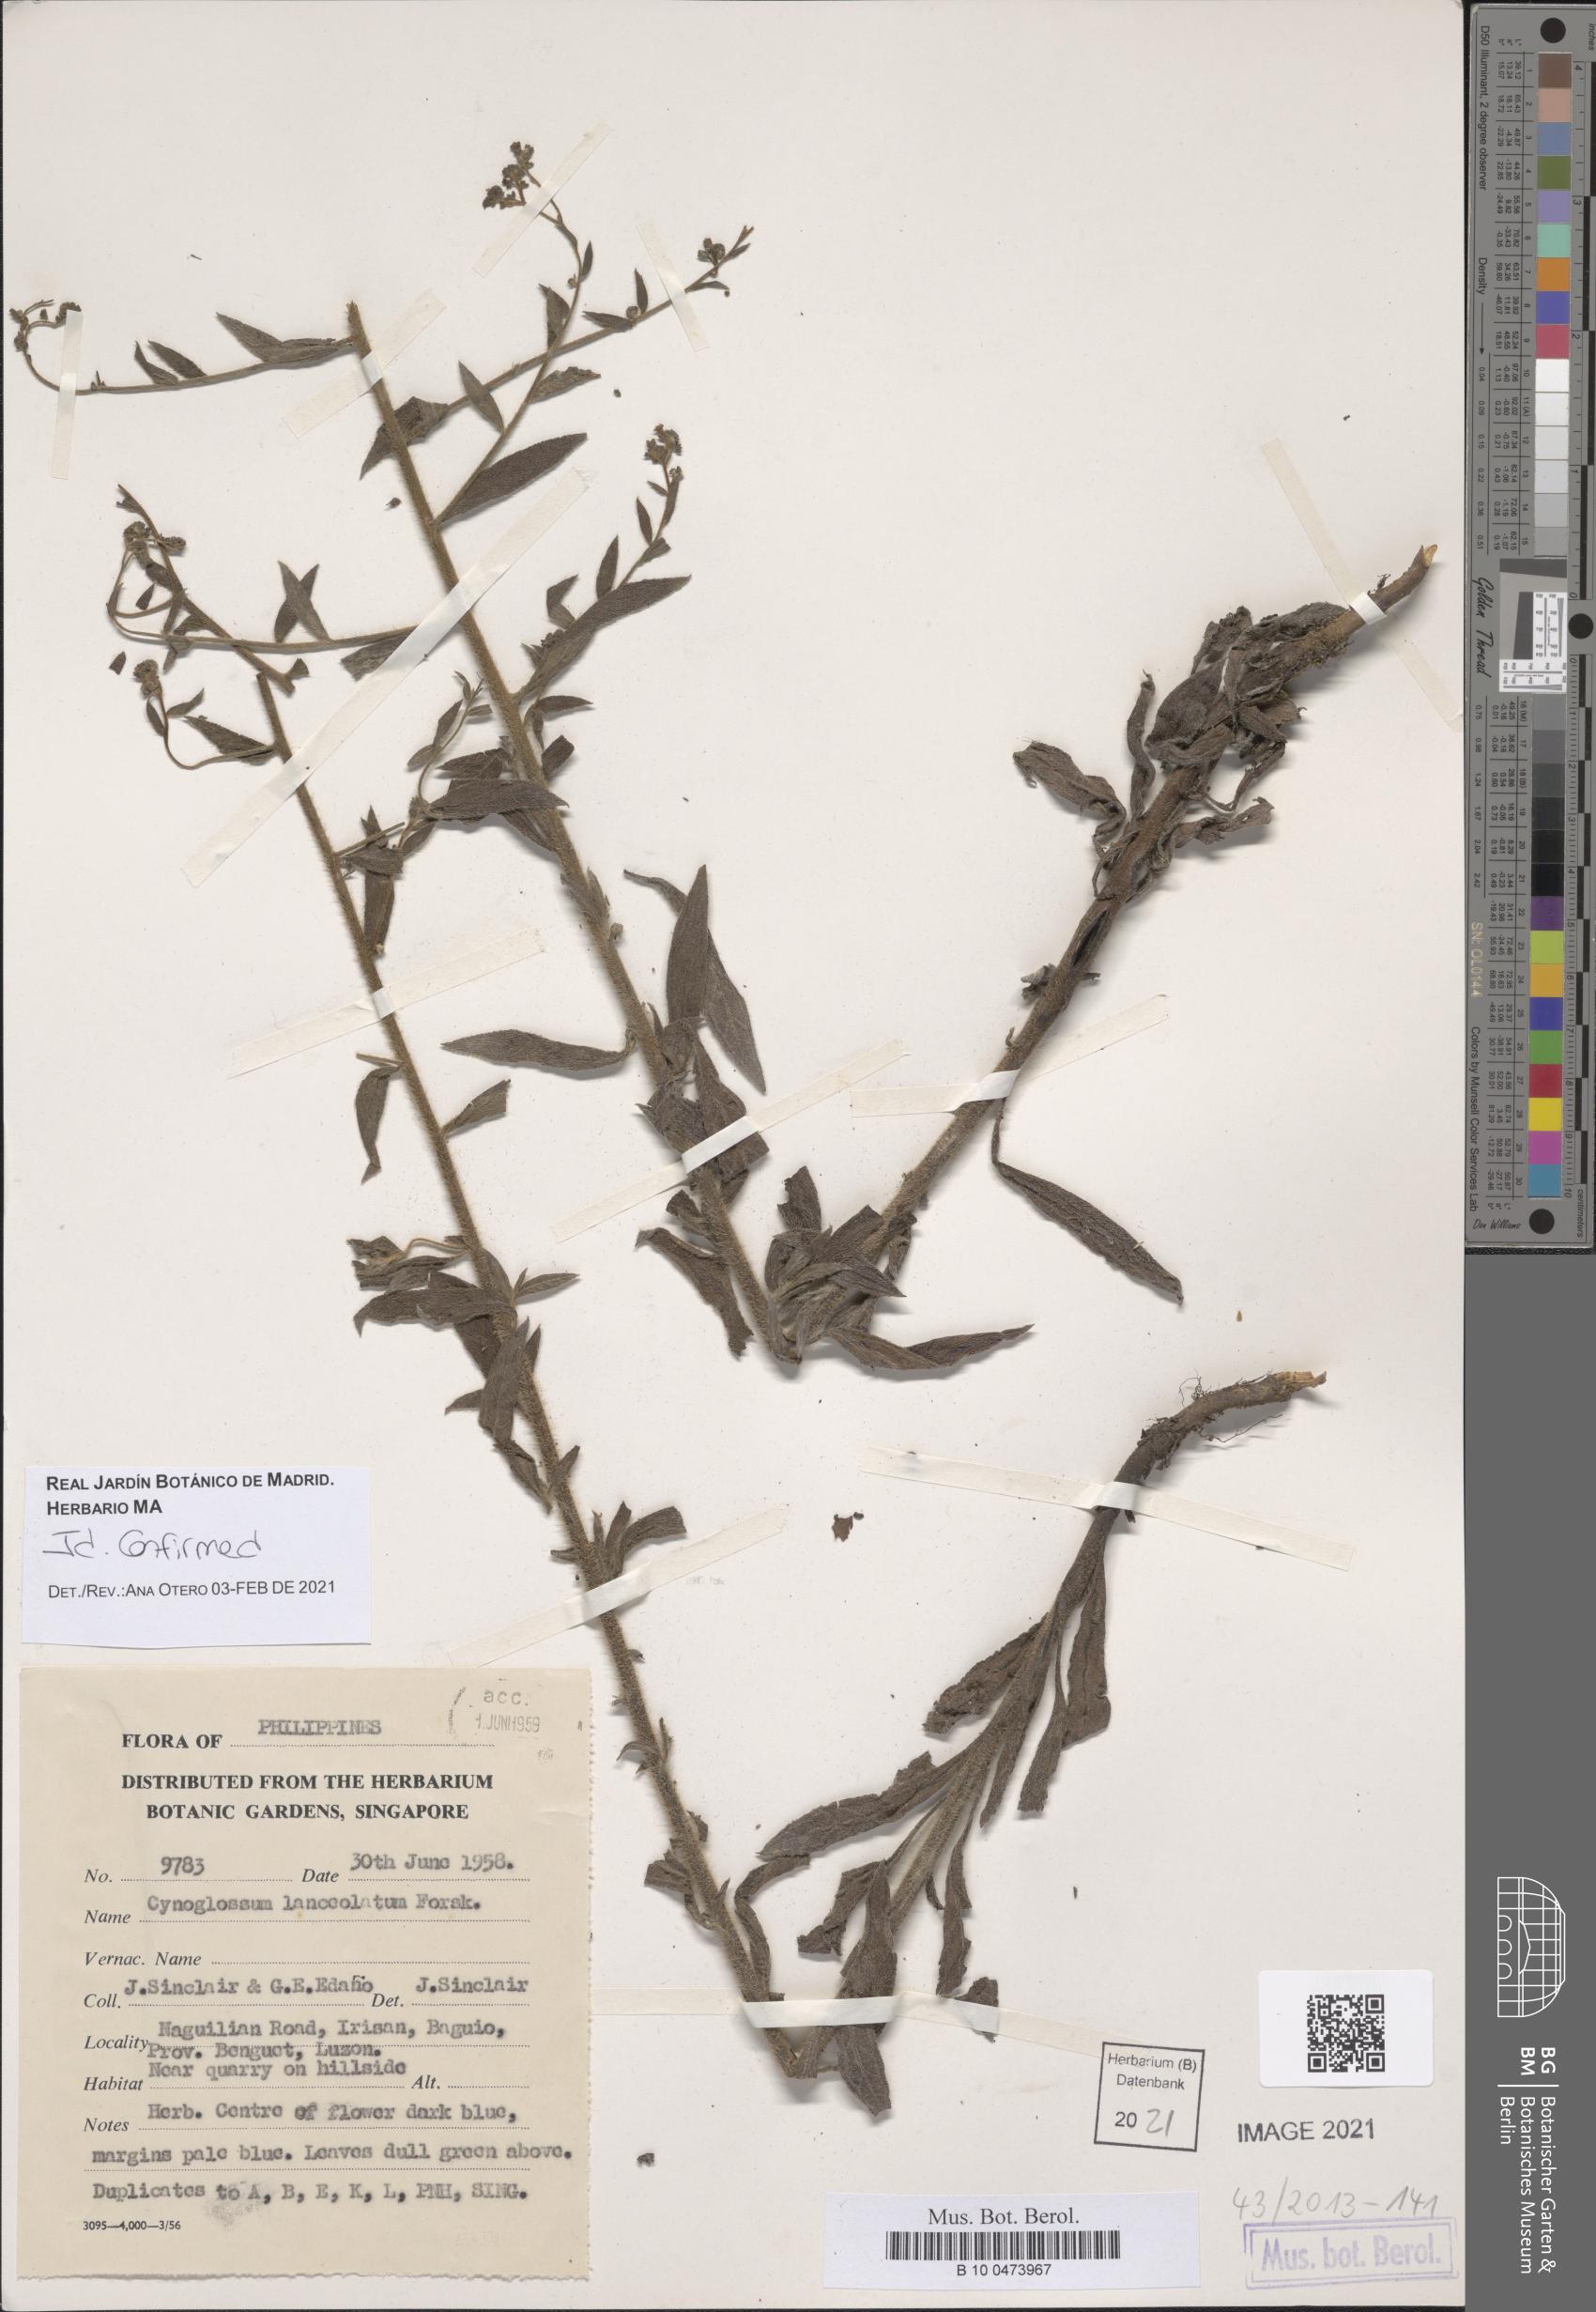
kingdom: Plantae
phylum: Tracheophyta
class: Magnoliopsida
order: Boraginales
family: Boraginaceae
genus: Paracynoglossum
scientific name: Paracynoglossum lanceolatum
